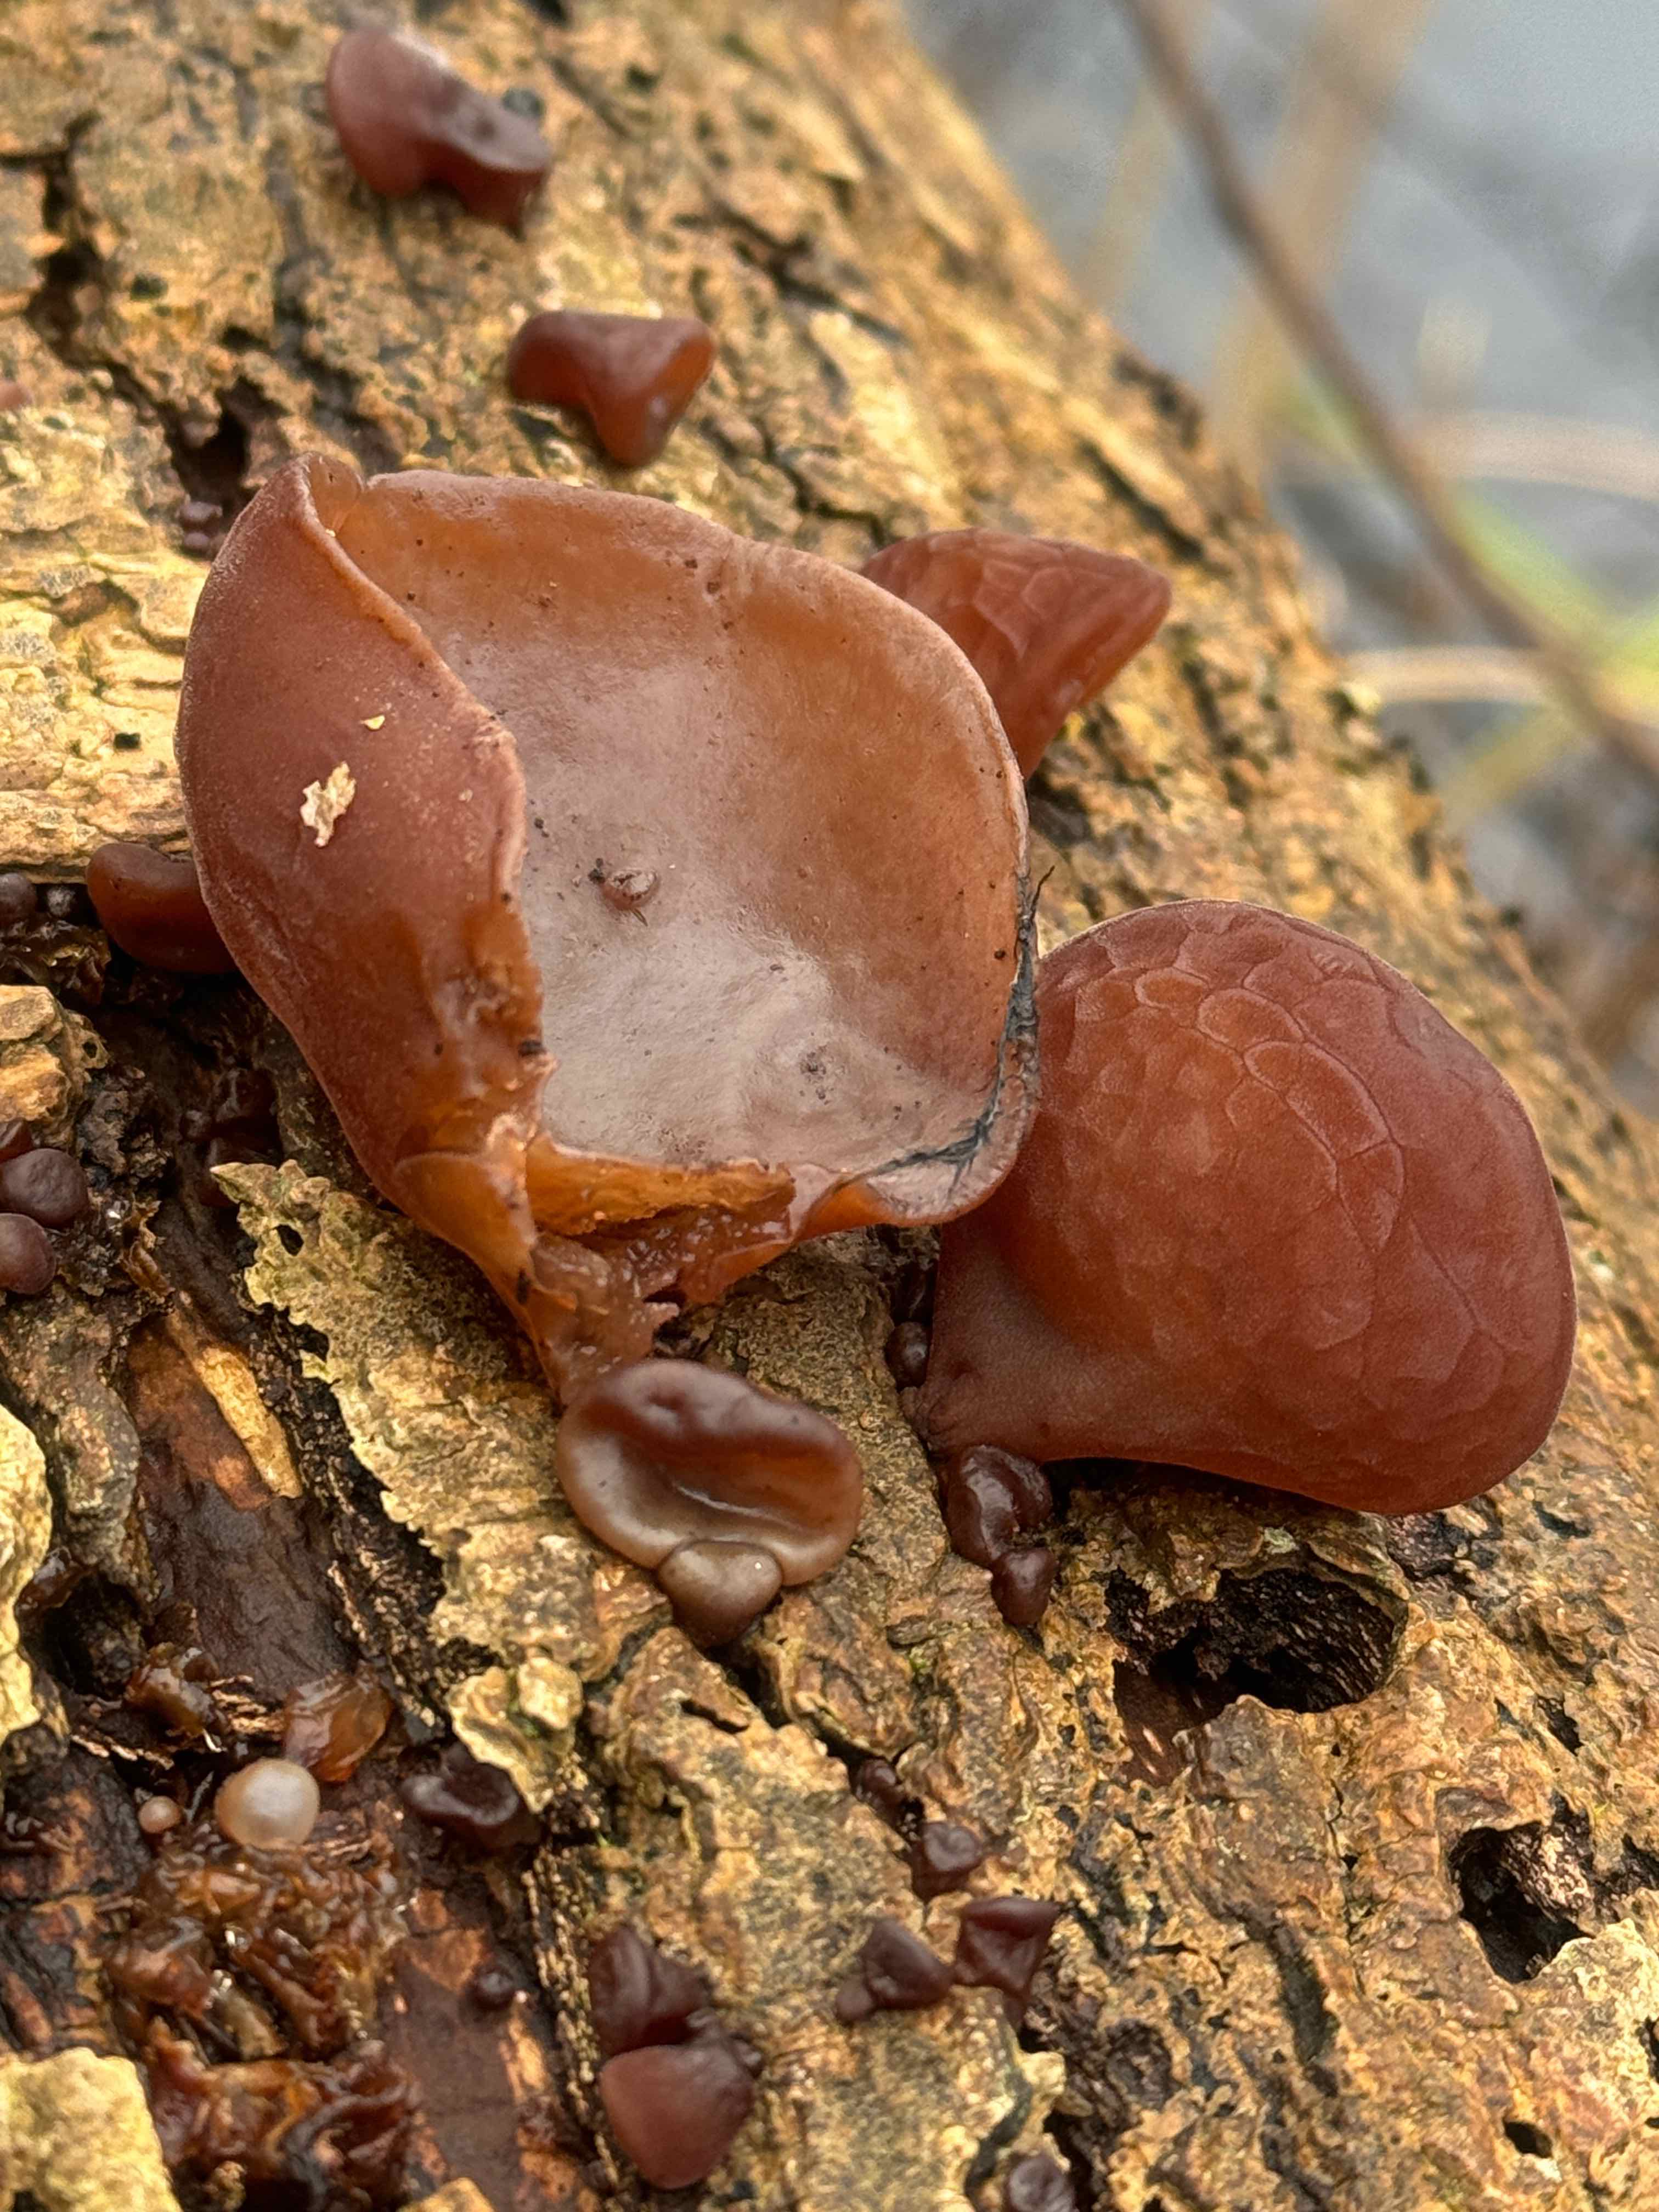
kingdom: Fungi
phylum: Basidiomycota
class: Agaricomycetes
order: Auriculariales
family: Auriculariaceae
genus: Auricularia
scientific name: Auricularia auricula-judae
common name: almindelig judasøre
